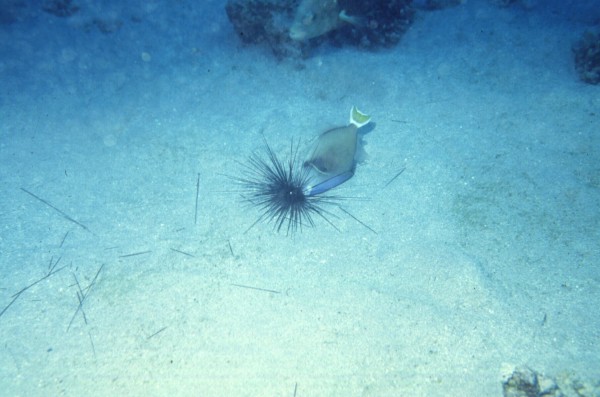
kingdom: Animalia
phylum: Chordata
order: Tetraodontiformes
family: Balistidae
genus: Sufflamen
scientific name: Sufflamen albicaudatum
